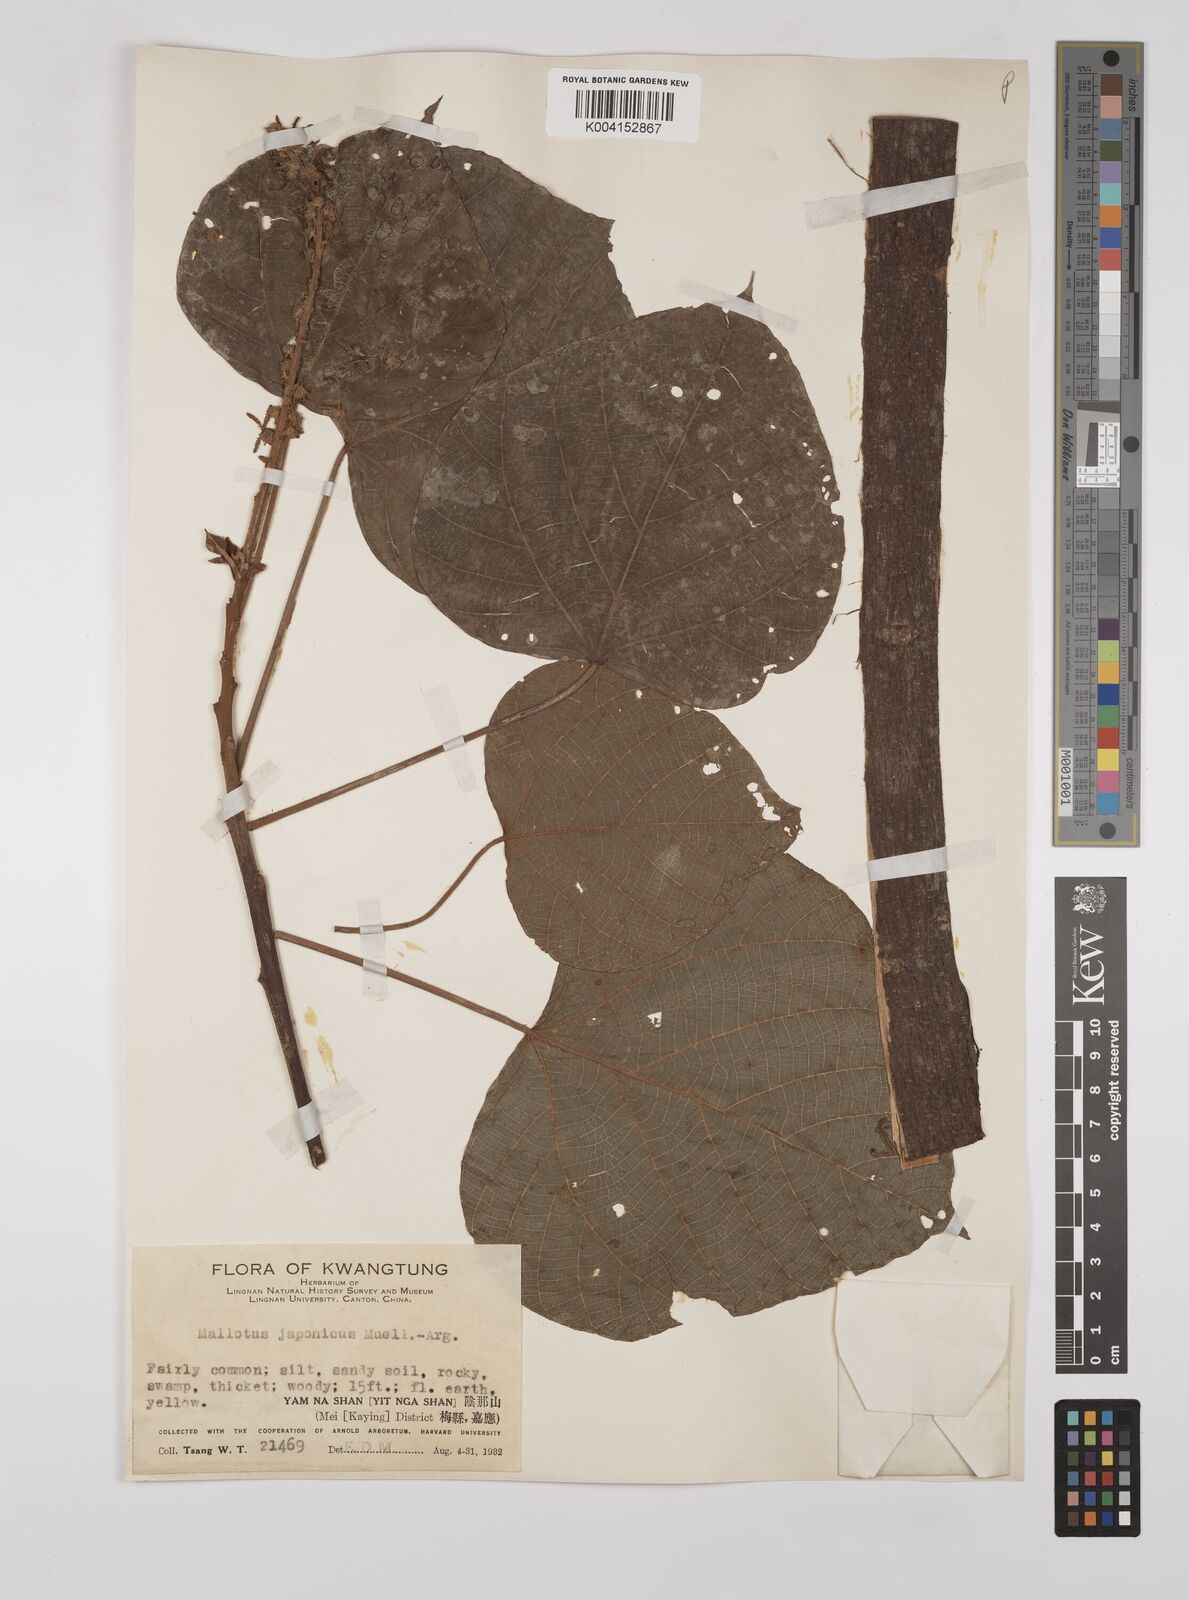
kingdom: Plantae
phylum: Tracheophyta
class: Magnoliopsida
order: Malpighiales
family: Euphorbiaceae
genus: Mallotus
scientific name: Mallotus lianus
